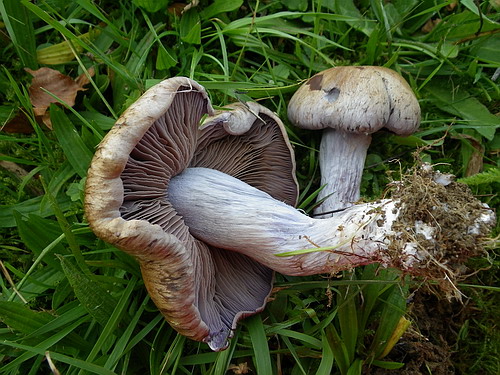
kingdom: Fungi
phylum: Basidiomycota
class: Agaricomycetes
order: Agaricales
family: Cortinariaceae
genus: Cortinarius
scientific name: Cortinarius largus
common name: violetrandet slørhat
